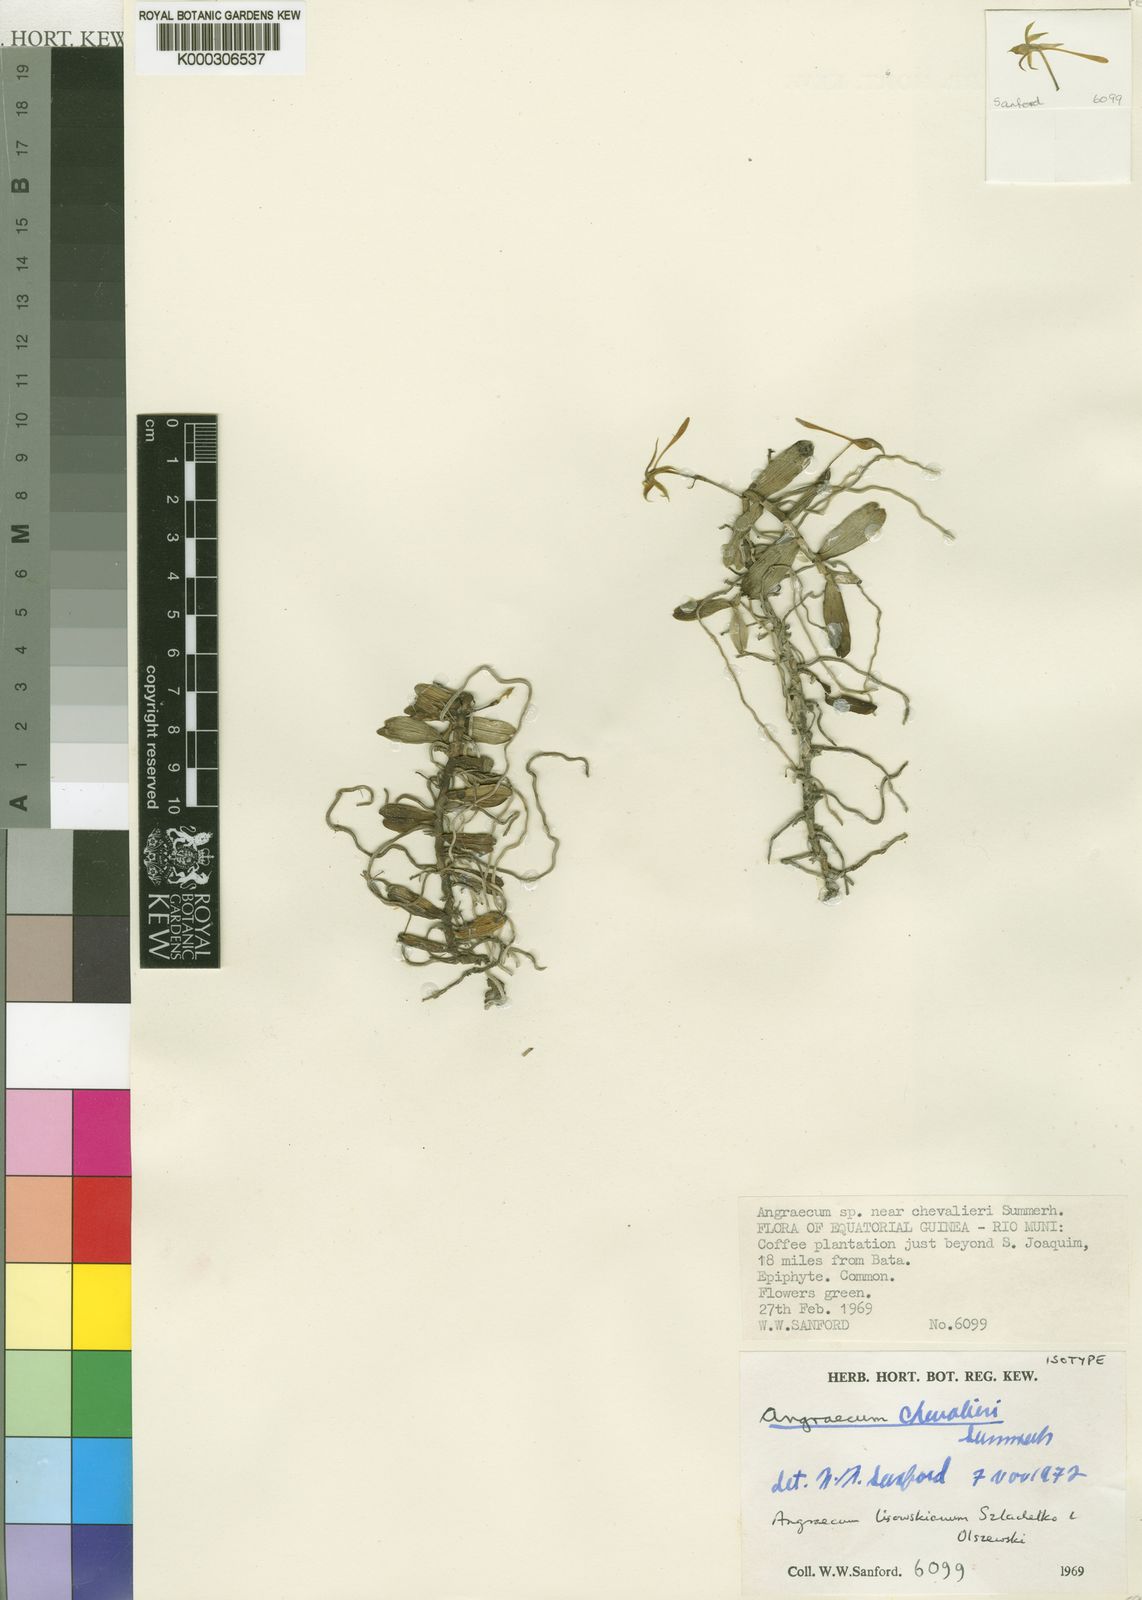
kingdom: Plantae
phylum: Tracheophyta
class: Liliopsida
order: Asparagales
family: Orchidaceae
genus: Angraecum
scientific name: Angraecum lisowskianum
